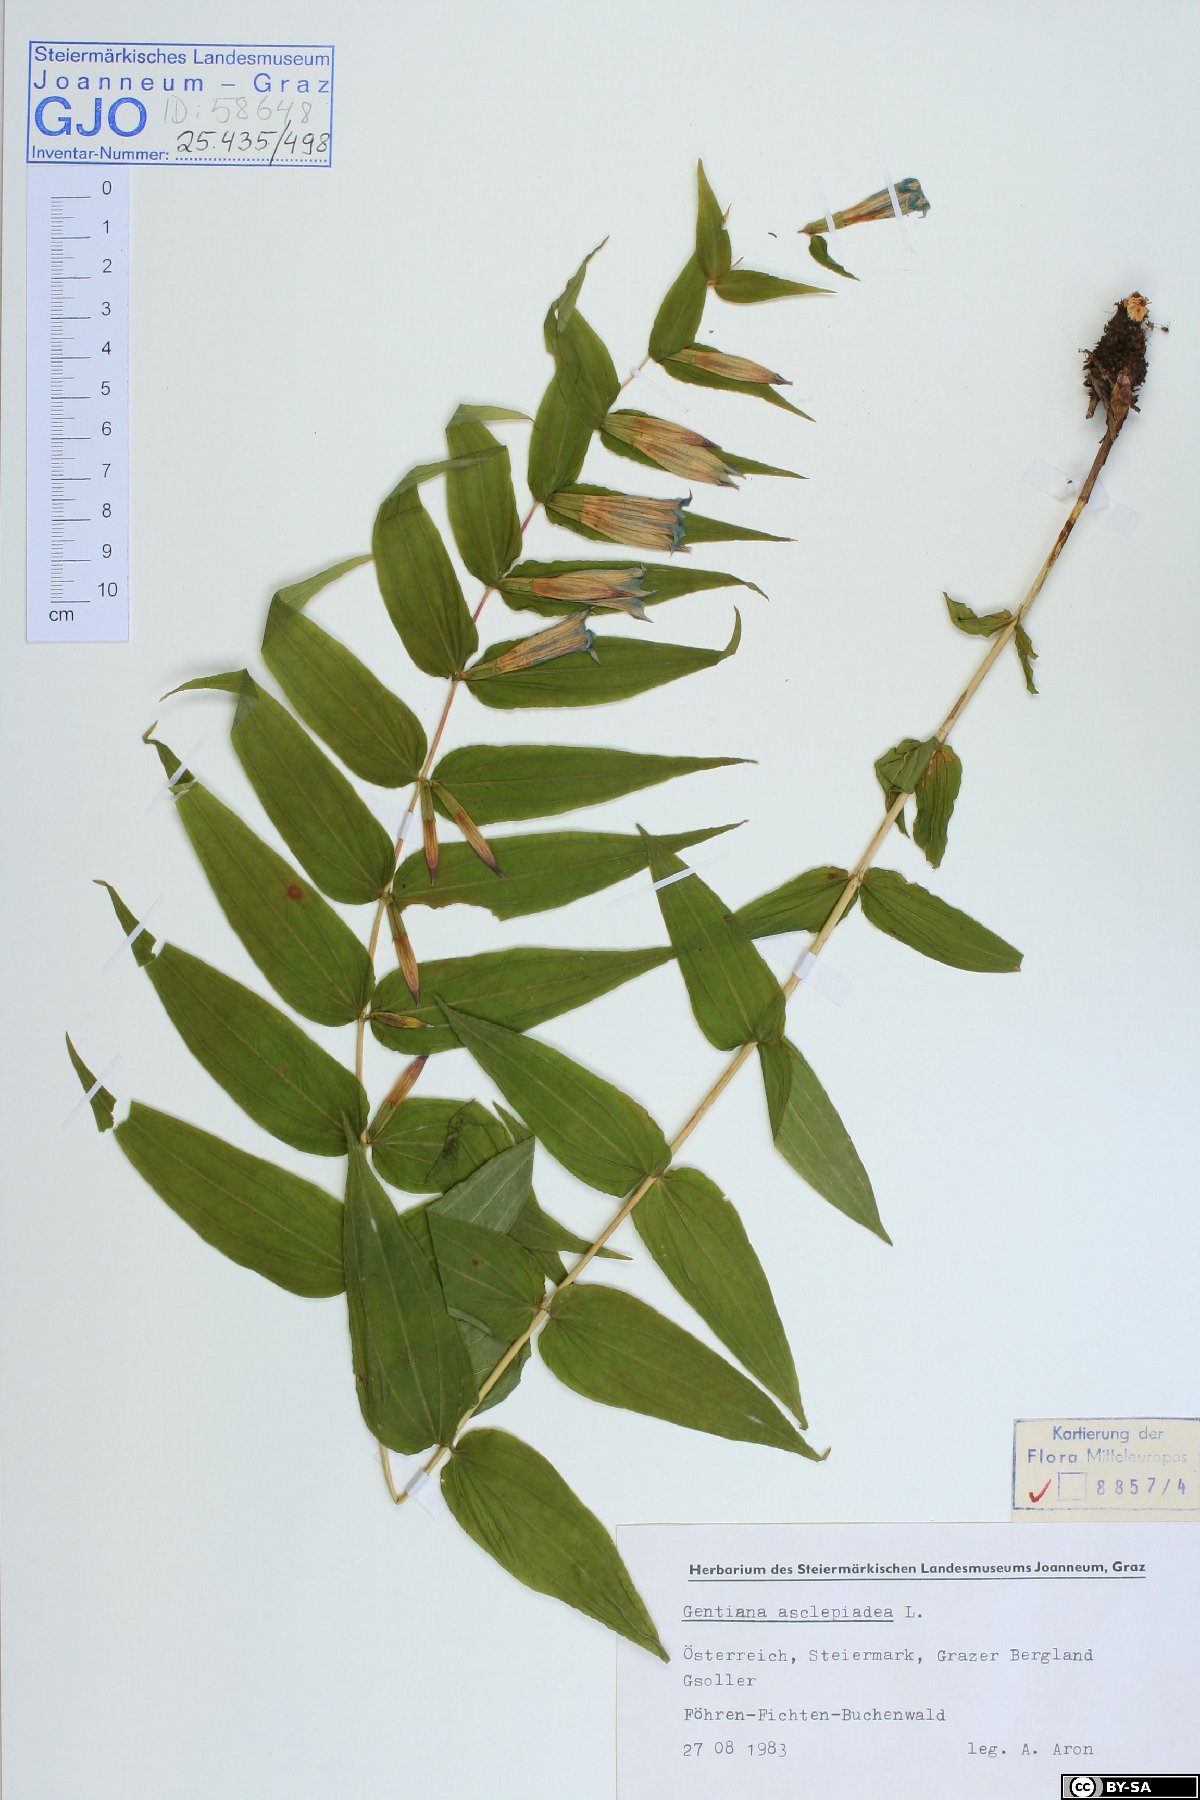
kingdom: Plantae
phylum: Tracheophyta
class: Magnoliopsida
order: Gentianales
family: Gentianaceae
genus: Gentiana
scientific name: Gentiana asclepiadea
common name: Willow gentian
